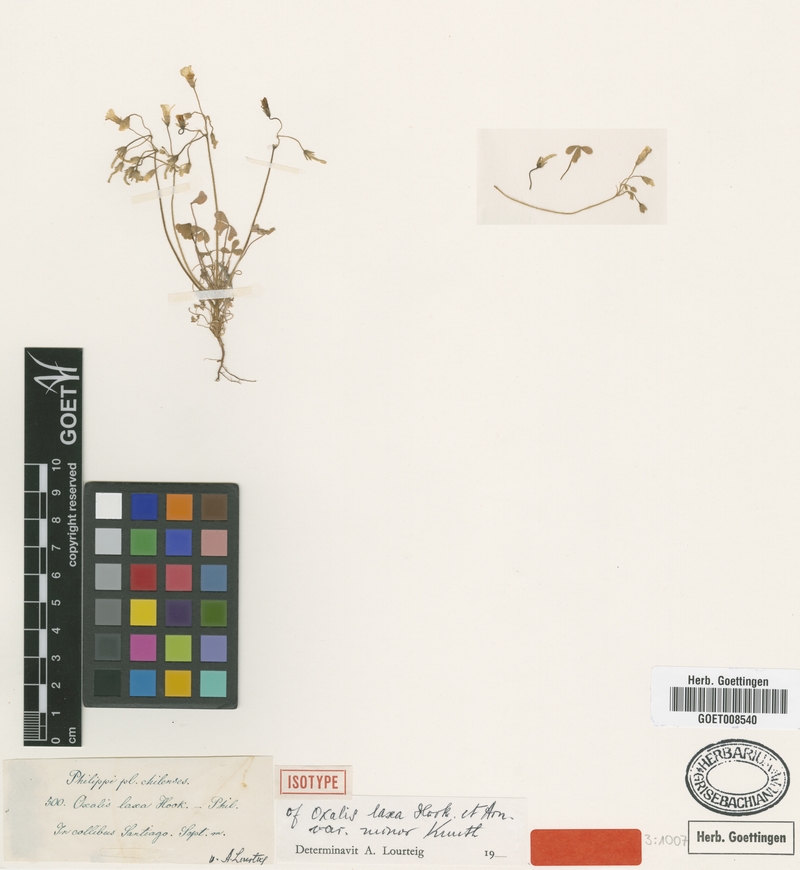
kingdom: Plantae
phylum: Tracheophyta
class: Magnoliopsida
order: Oxalidales
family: Oxalidaceae
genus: Oxalis
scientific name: Oxalis laxa
